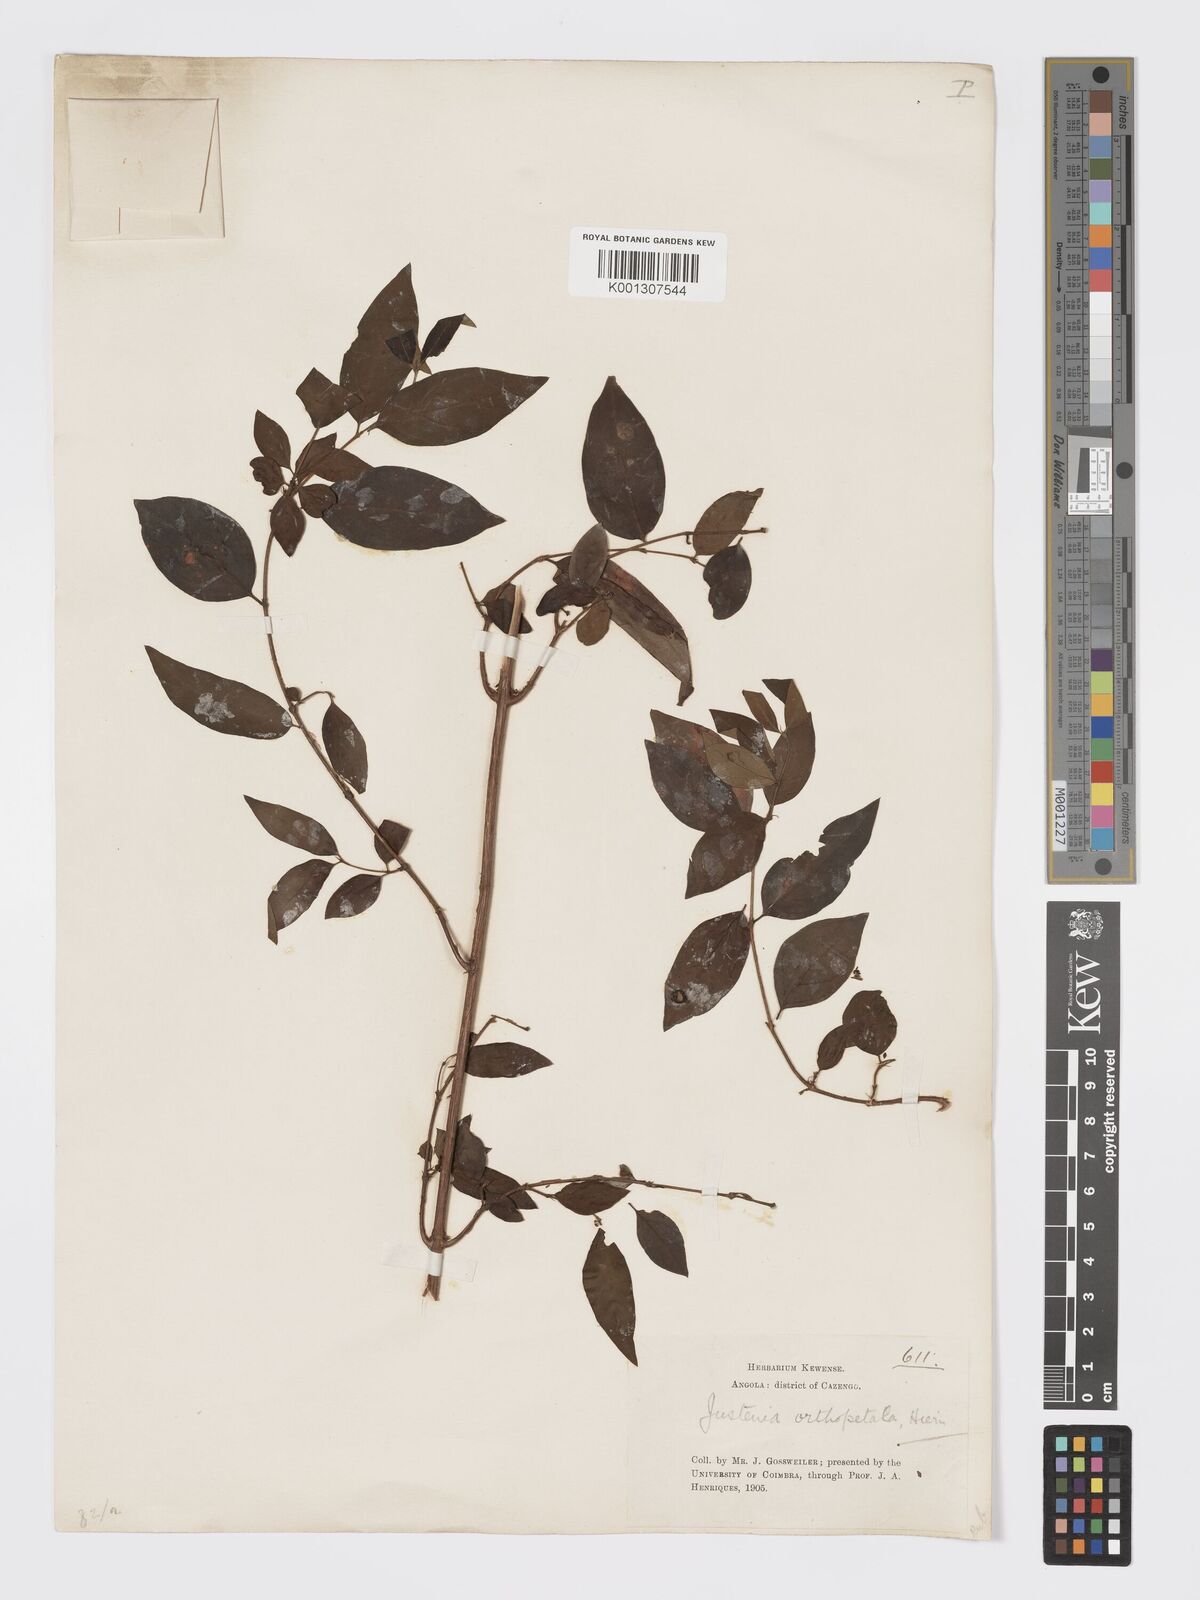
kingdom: Plantae
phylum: Tracheophyta
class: Magnoliopsida
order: Gentianales
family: Rubiaceae
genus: Bertiera
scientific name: Bertiera
